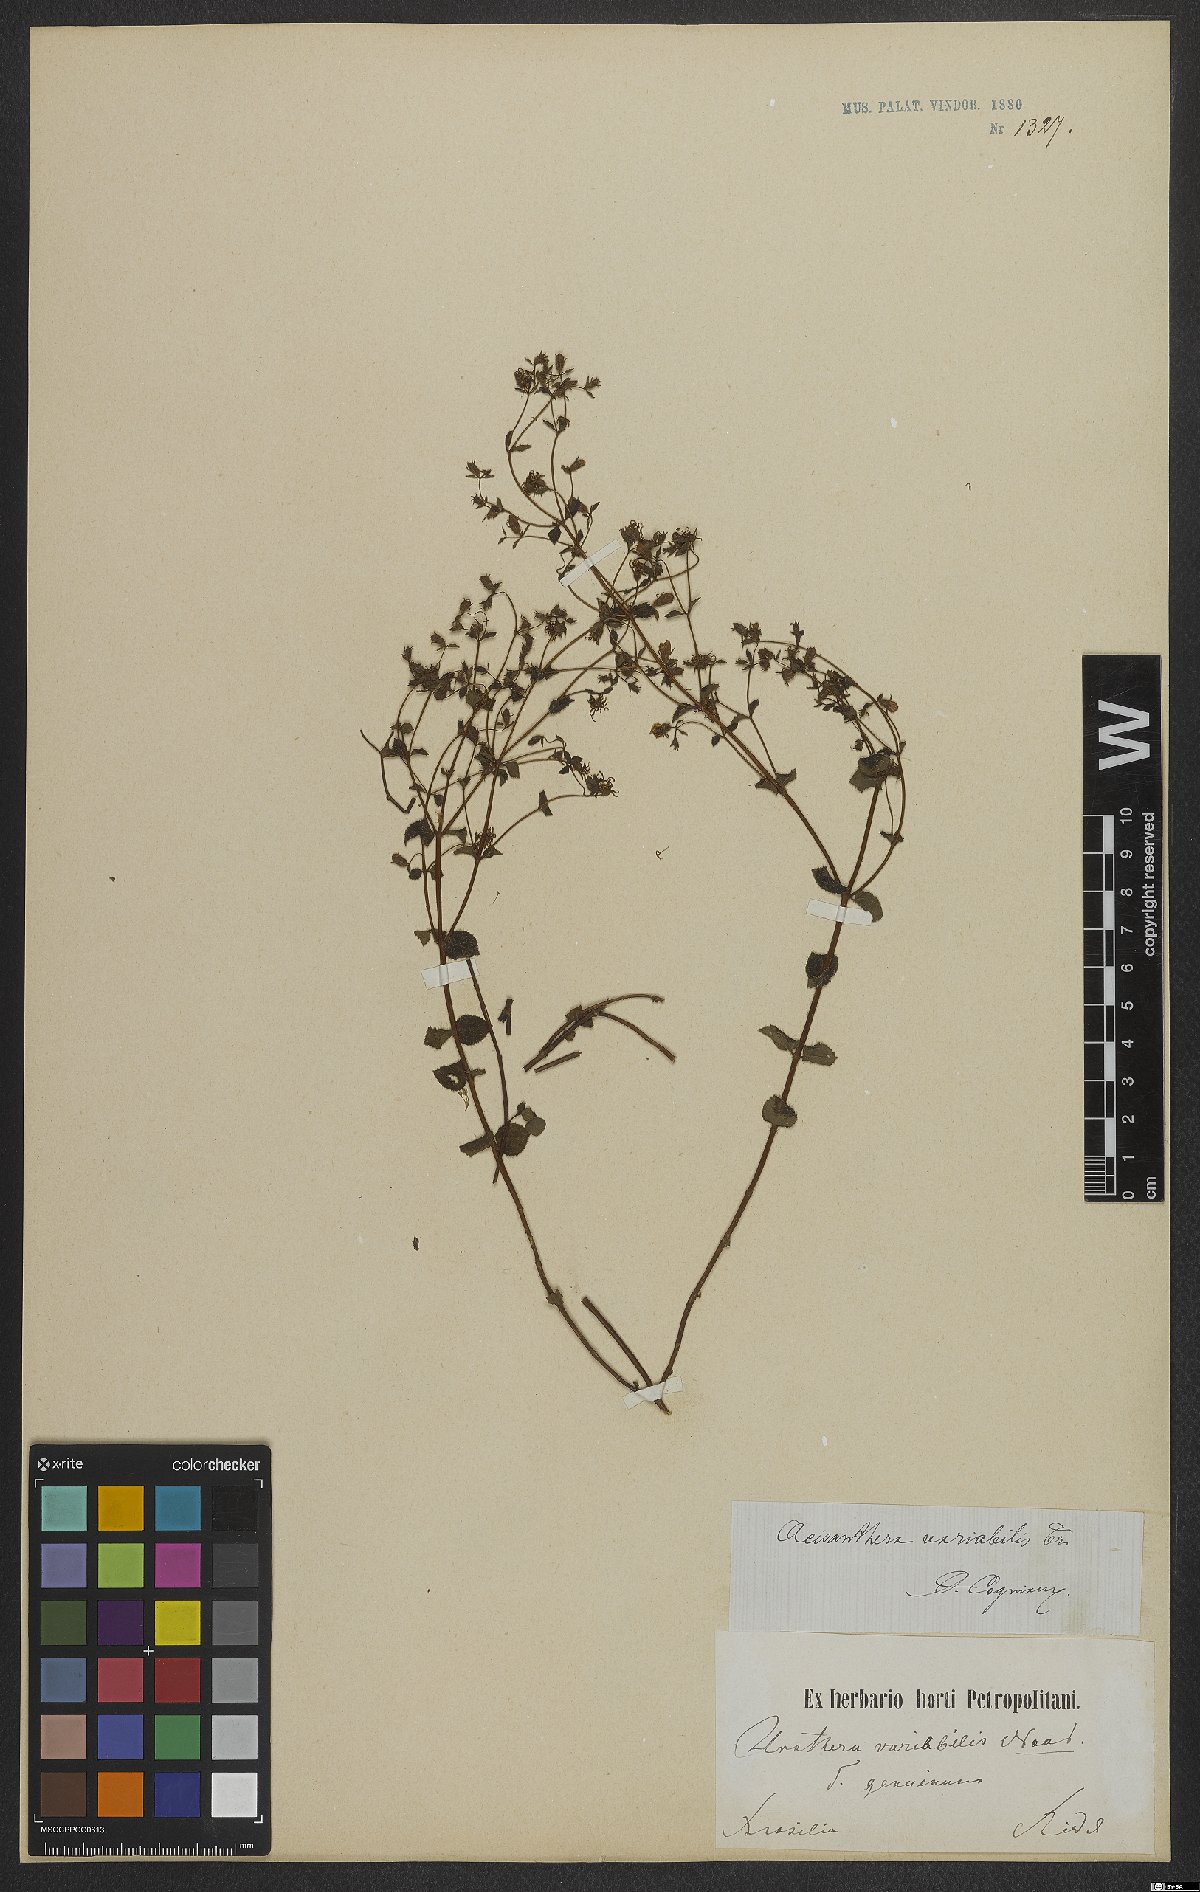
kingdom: Plantae
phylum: Tracheophyta
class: Magnoliopsida
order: Myrtales
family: Melastomataceae
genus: Acisanthera
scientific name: Acisanthera variabilis
